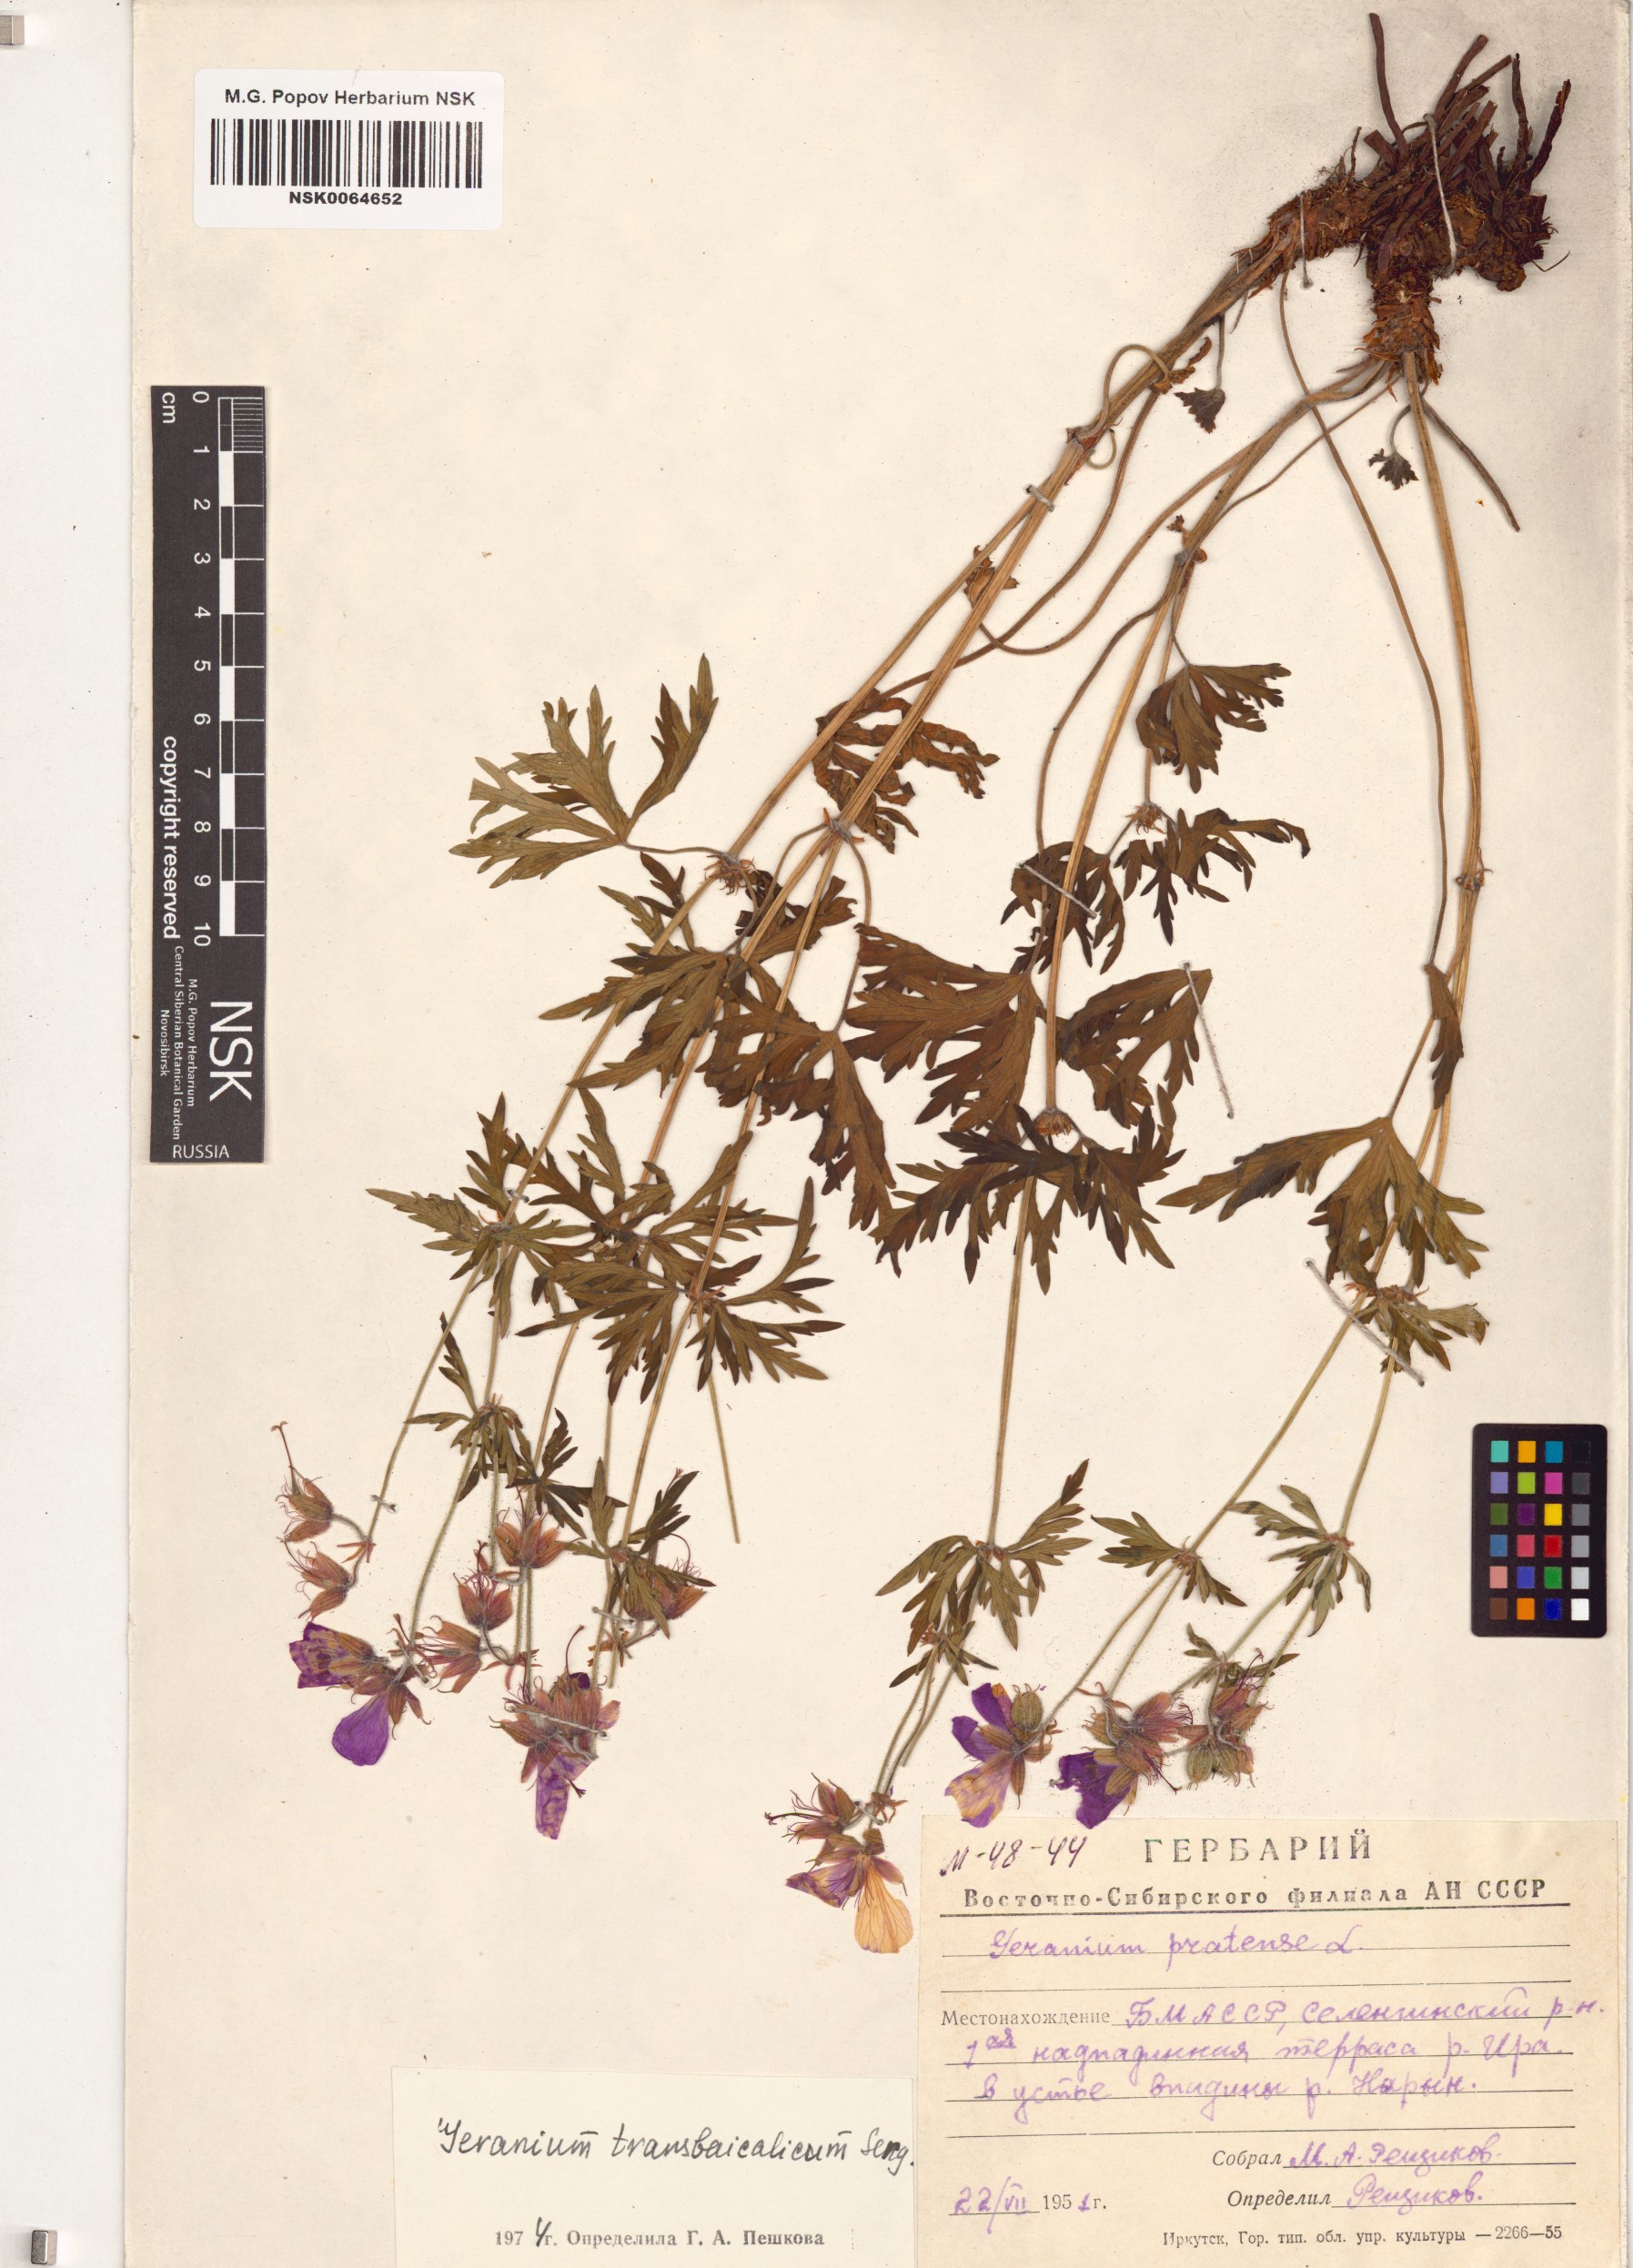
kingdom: Plantae
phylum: Tracheophyta
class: Magnoliopsida
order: Geraniales
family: Geraniaceae
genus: Geranium
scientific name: Geranium pratense
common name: Meadow crane's-bill
